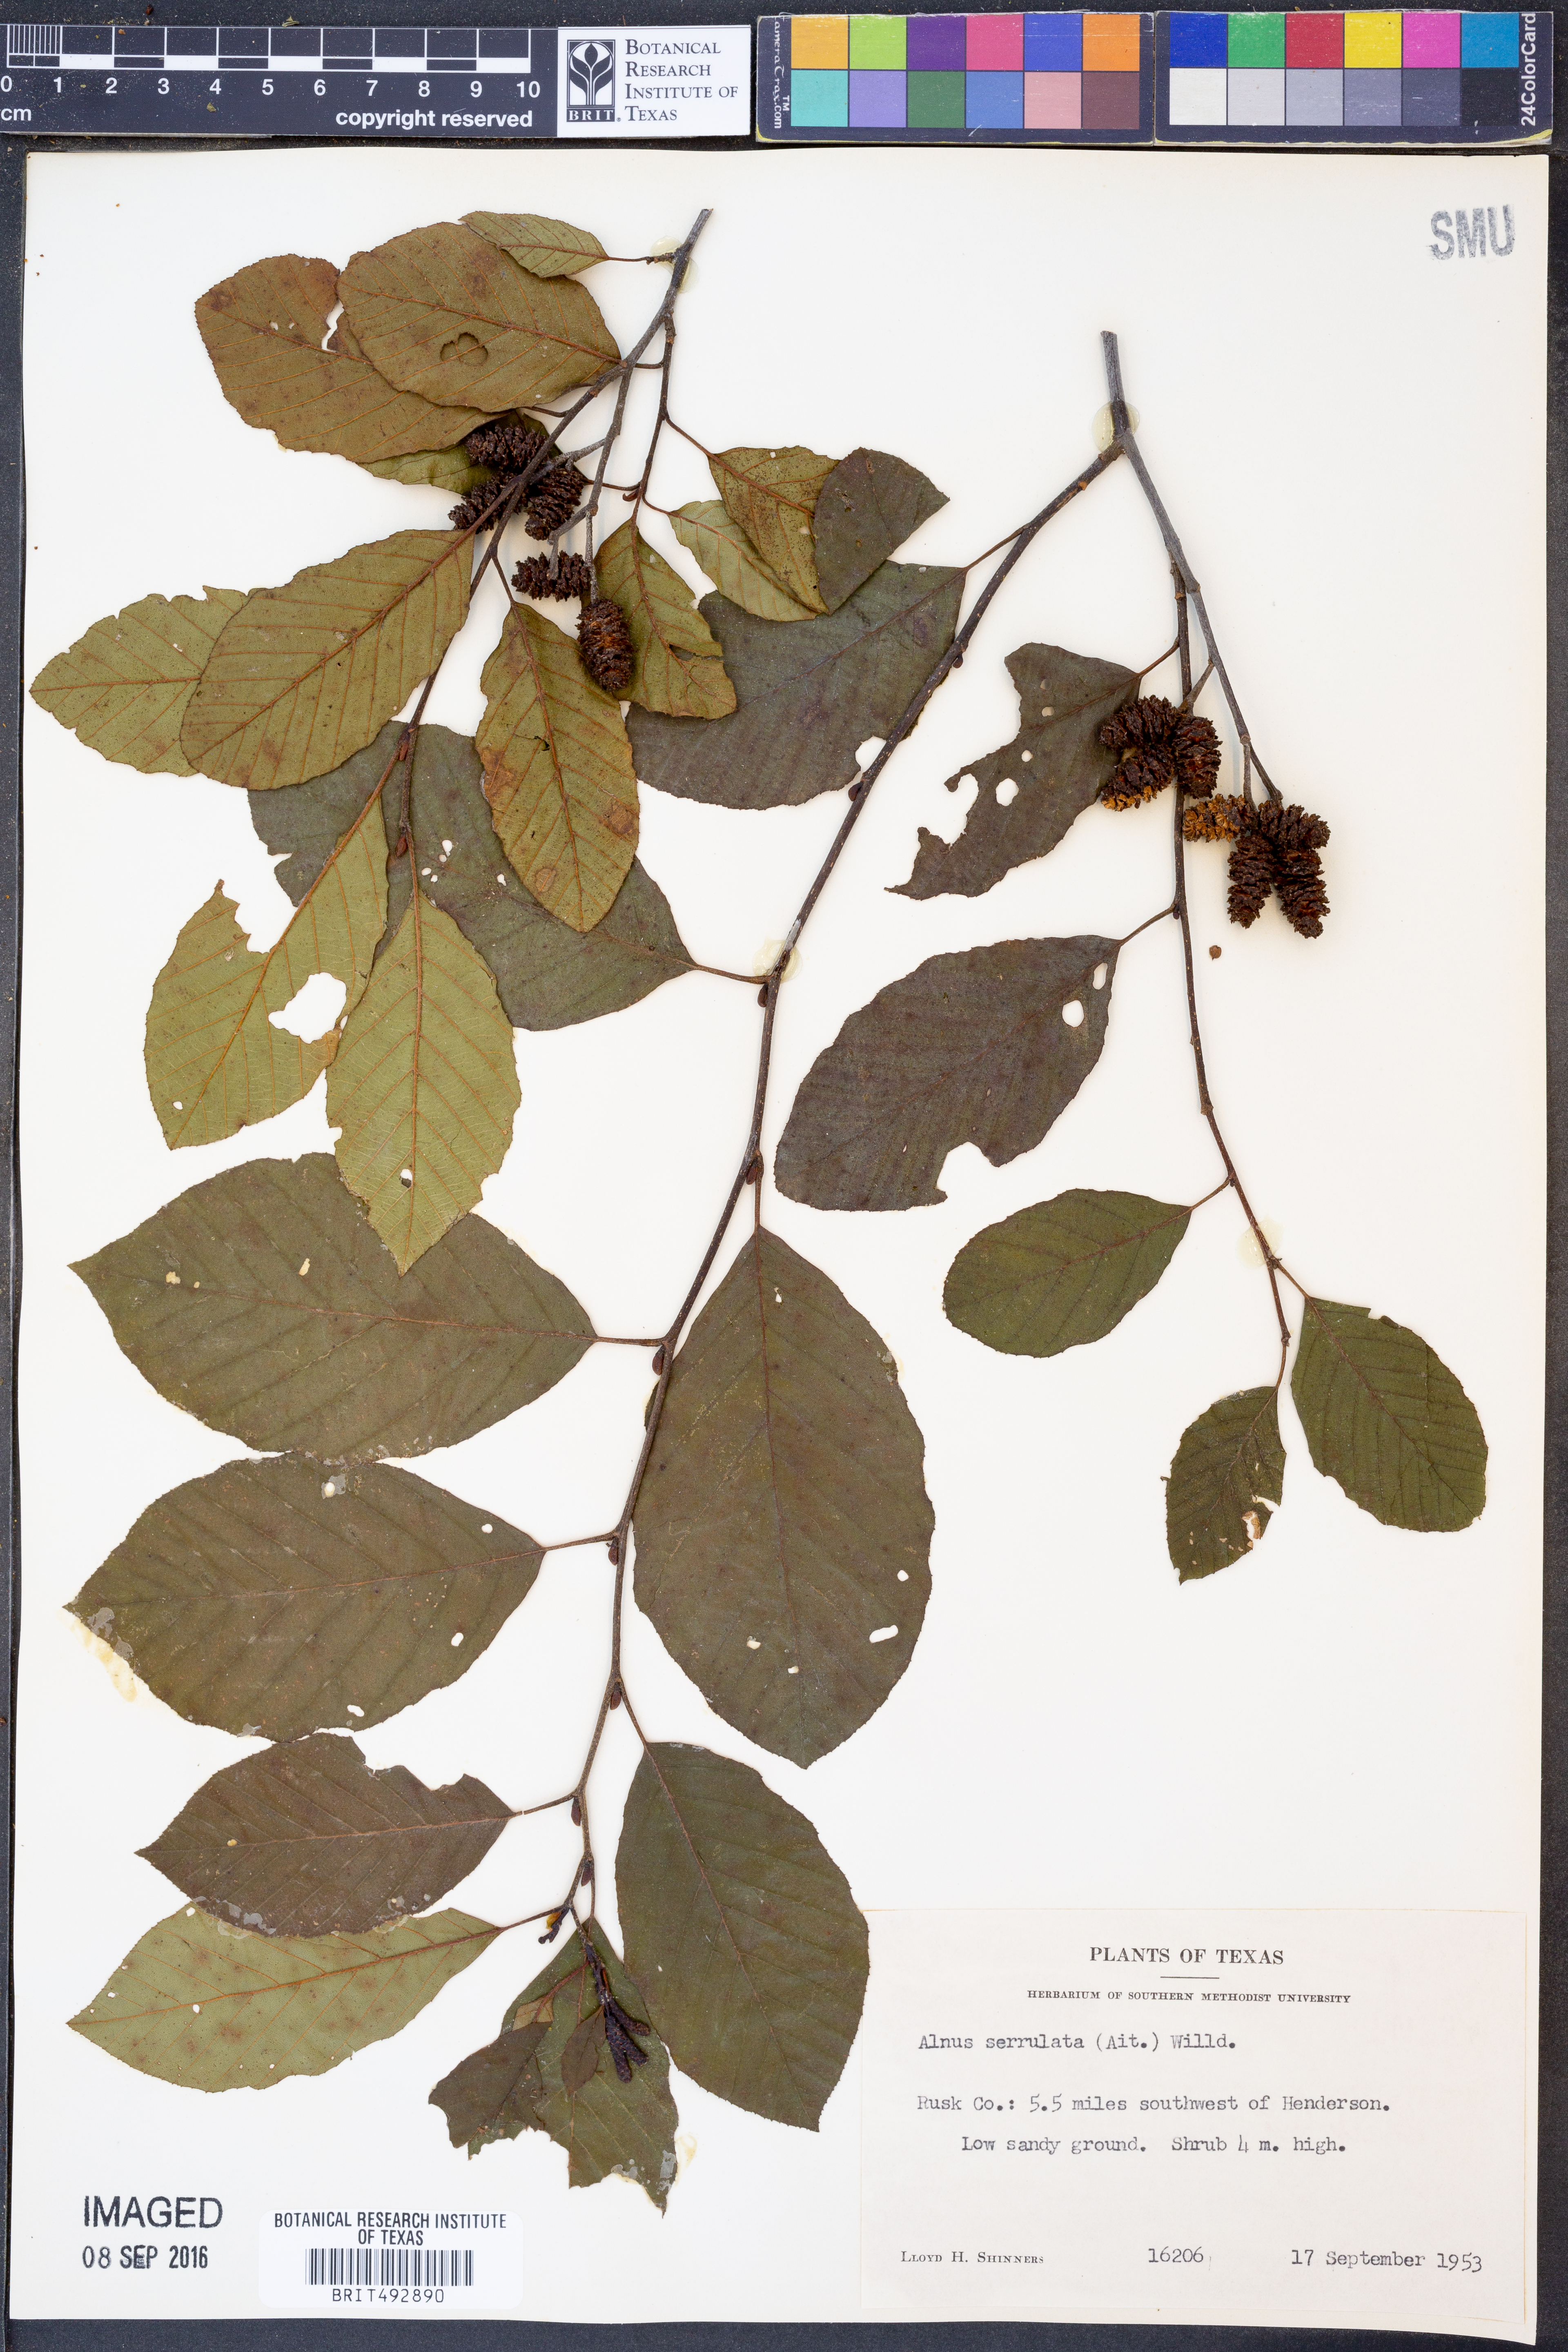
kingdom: Plantae
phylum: Tracheophyta
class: Magnoliopsida
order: Fagales
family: Betulaceae
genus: Alnus
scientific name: Alnus serrulata
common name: Hazel alder
